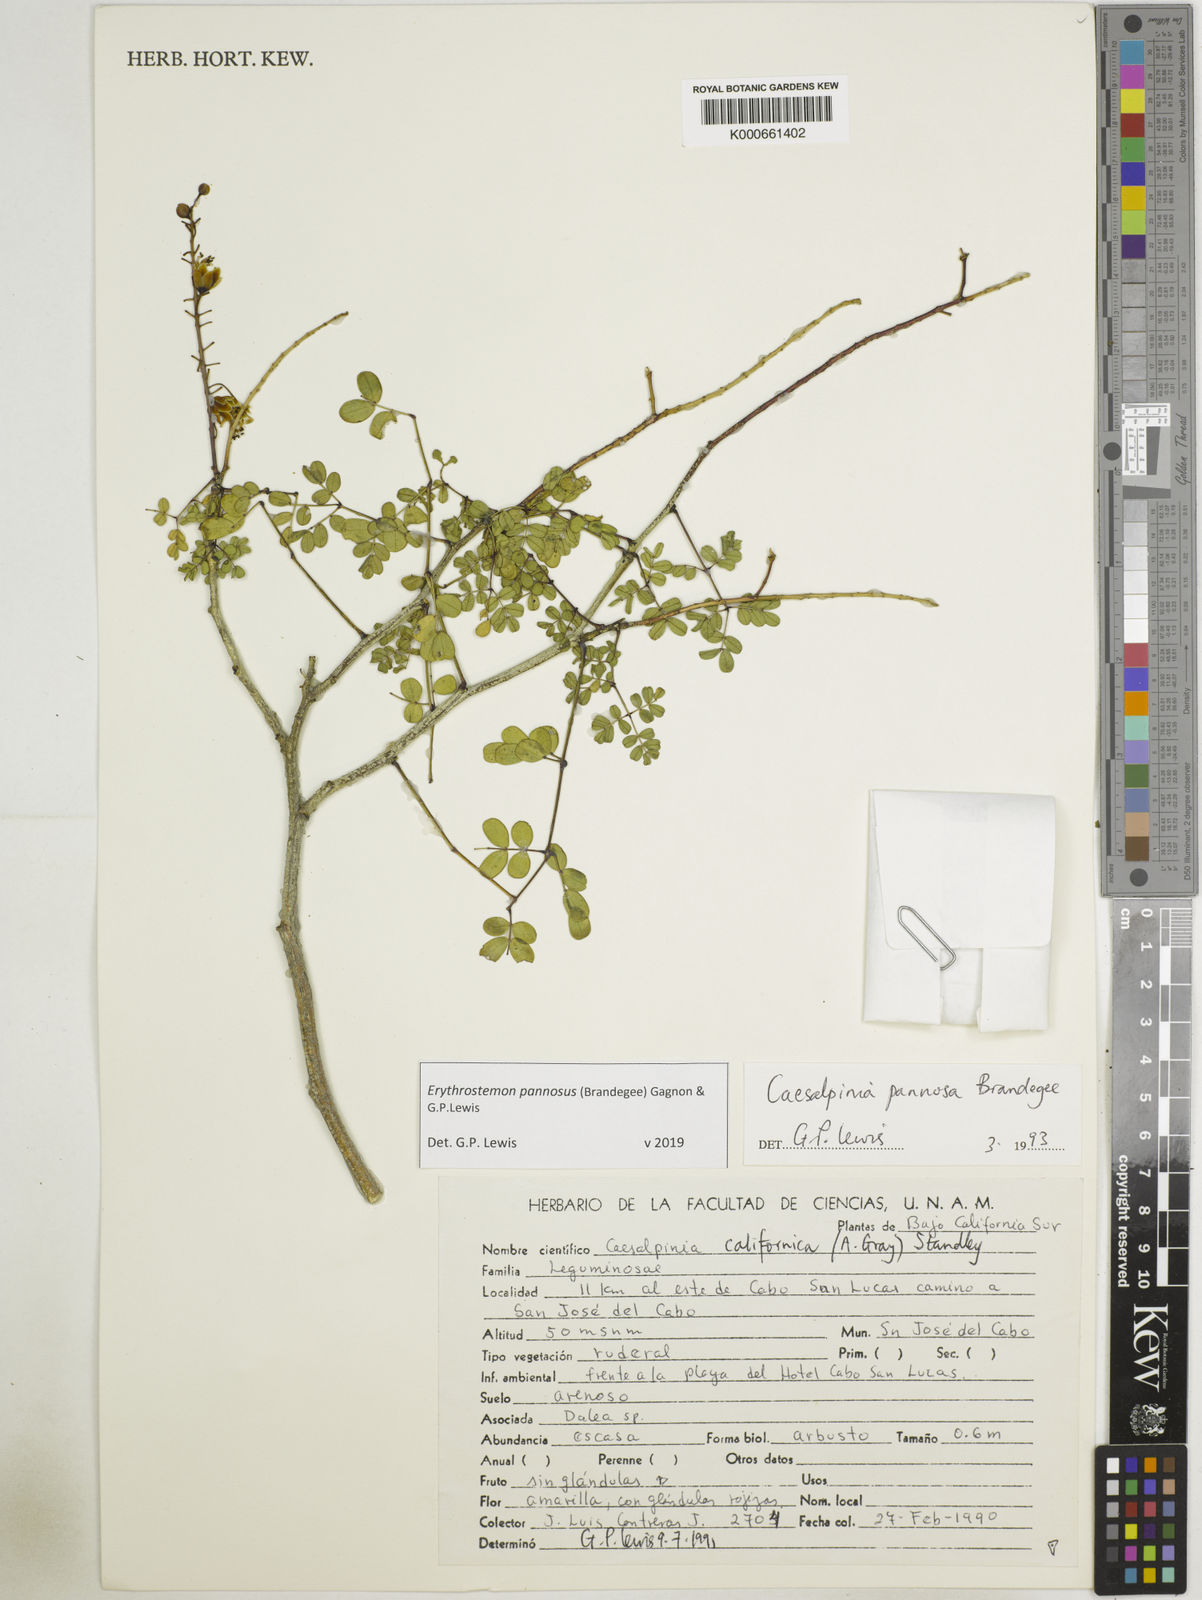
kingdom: Plantae
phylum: Tracheophyta
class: Magnoliopsida
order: Fabales
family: Fabaceae
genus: Erythrostemon
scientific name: Erythrostemon pannosus
